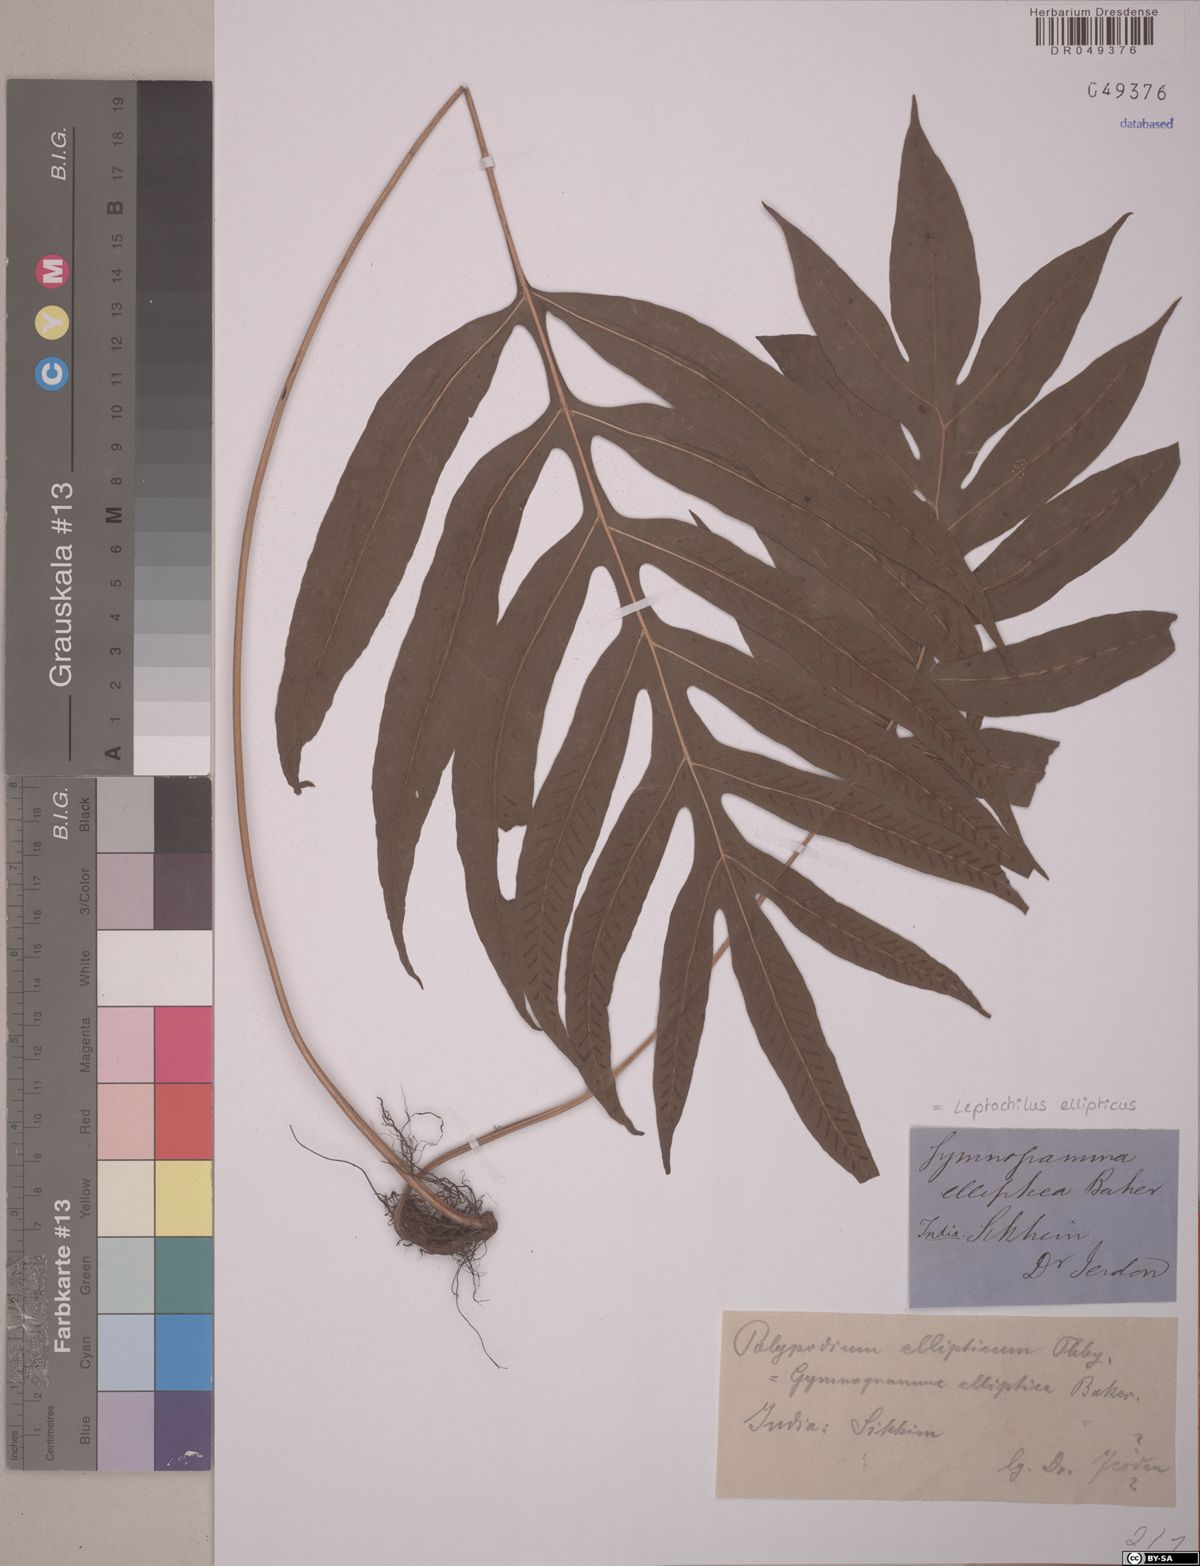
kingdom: Plantae
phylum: Tracheophyta
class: Polypodiopsida
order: Polypodiales
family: Polypodiaceae
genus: Leptochilus
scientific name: Leptochilus ellipticus
